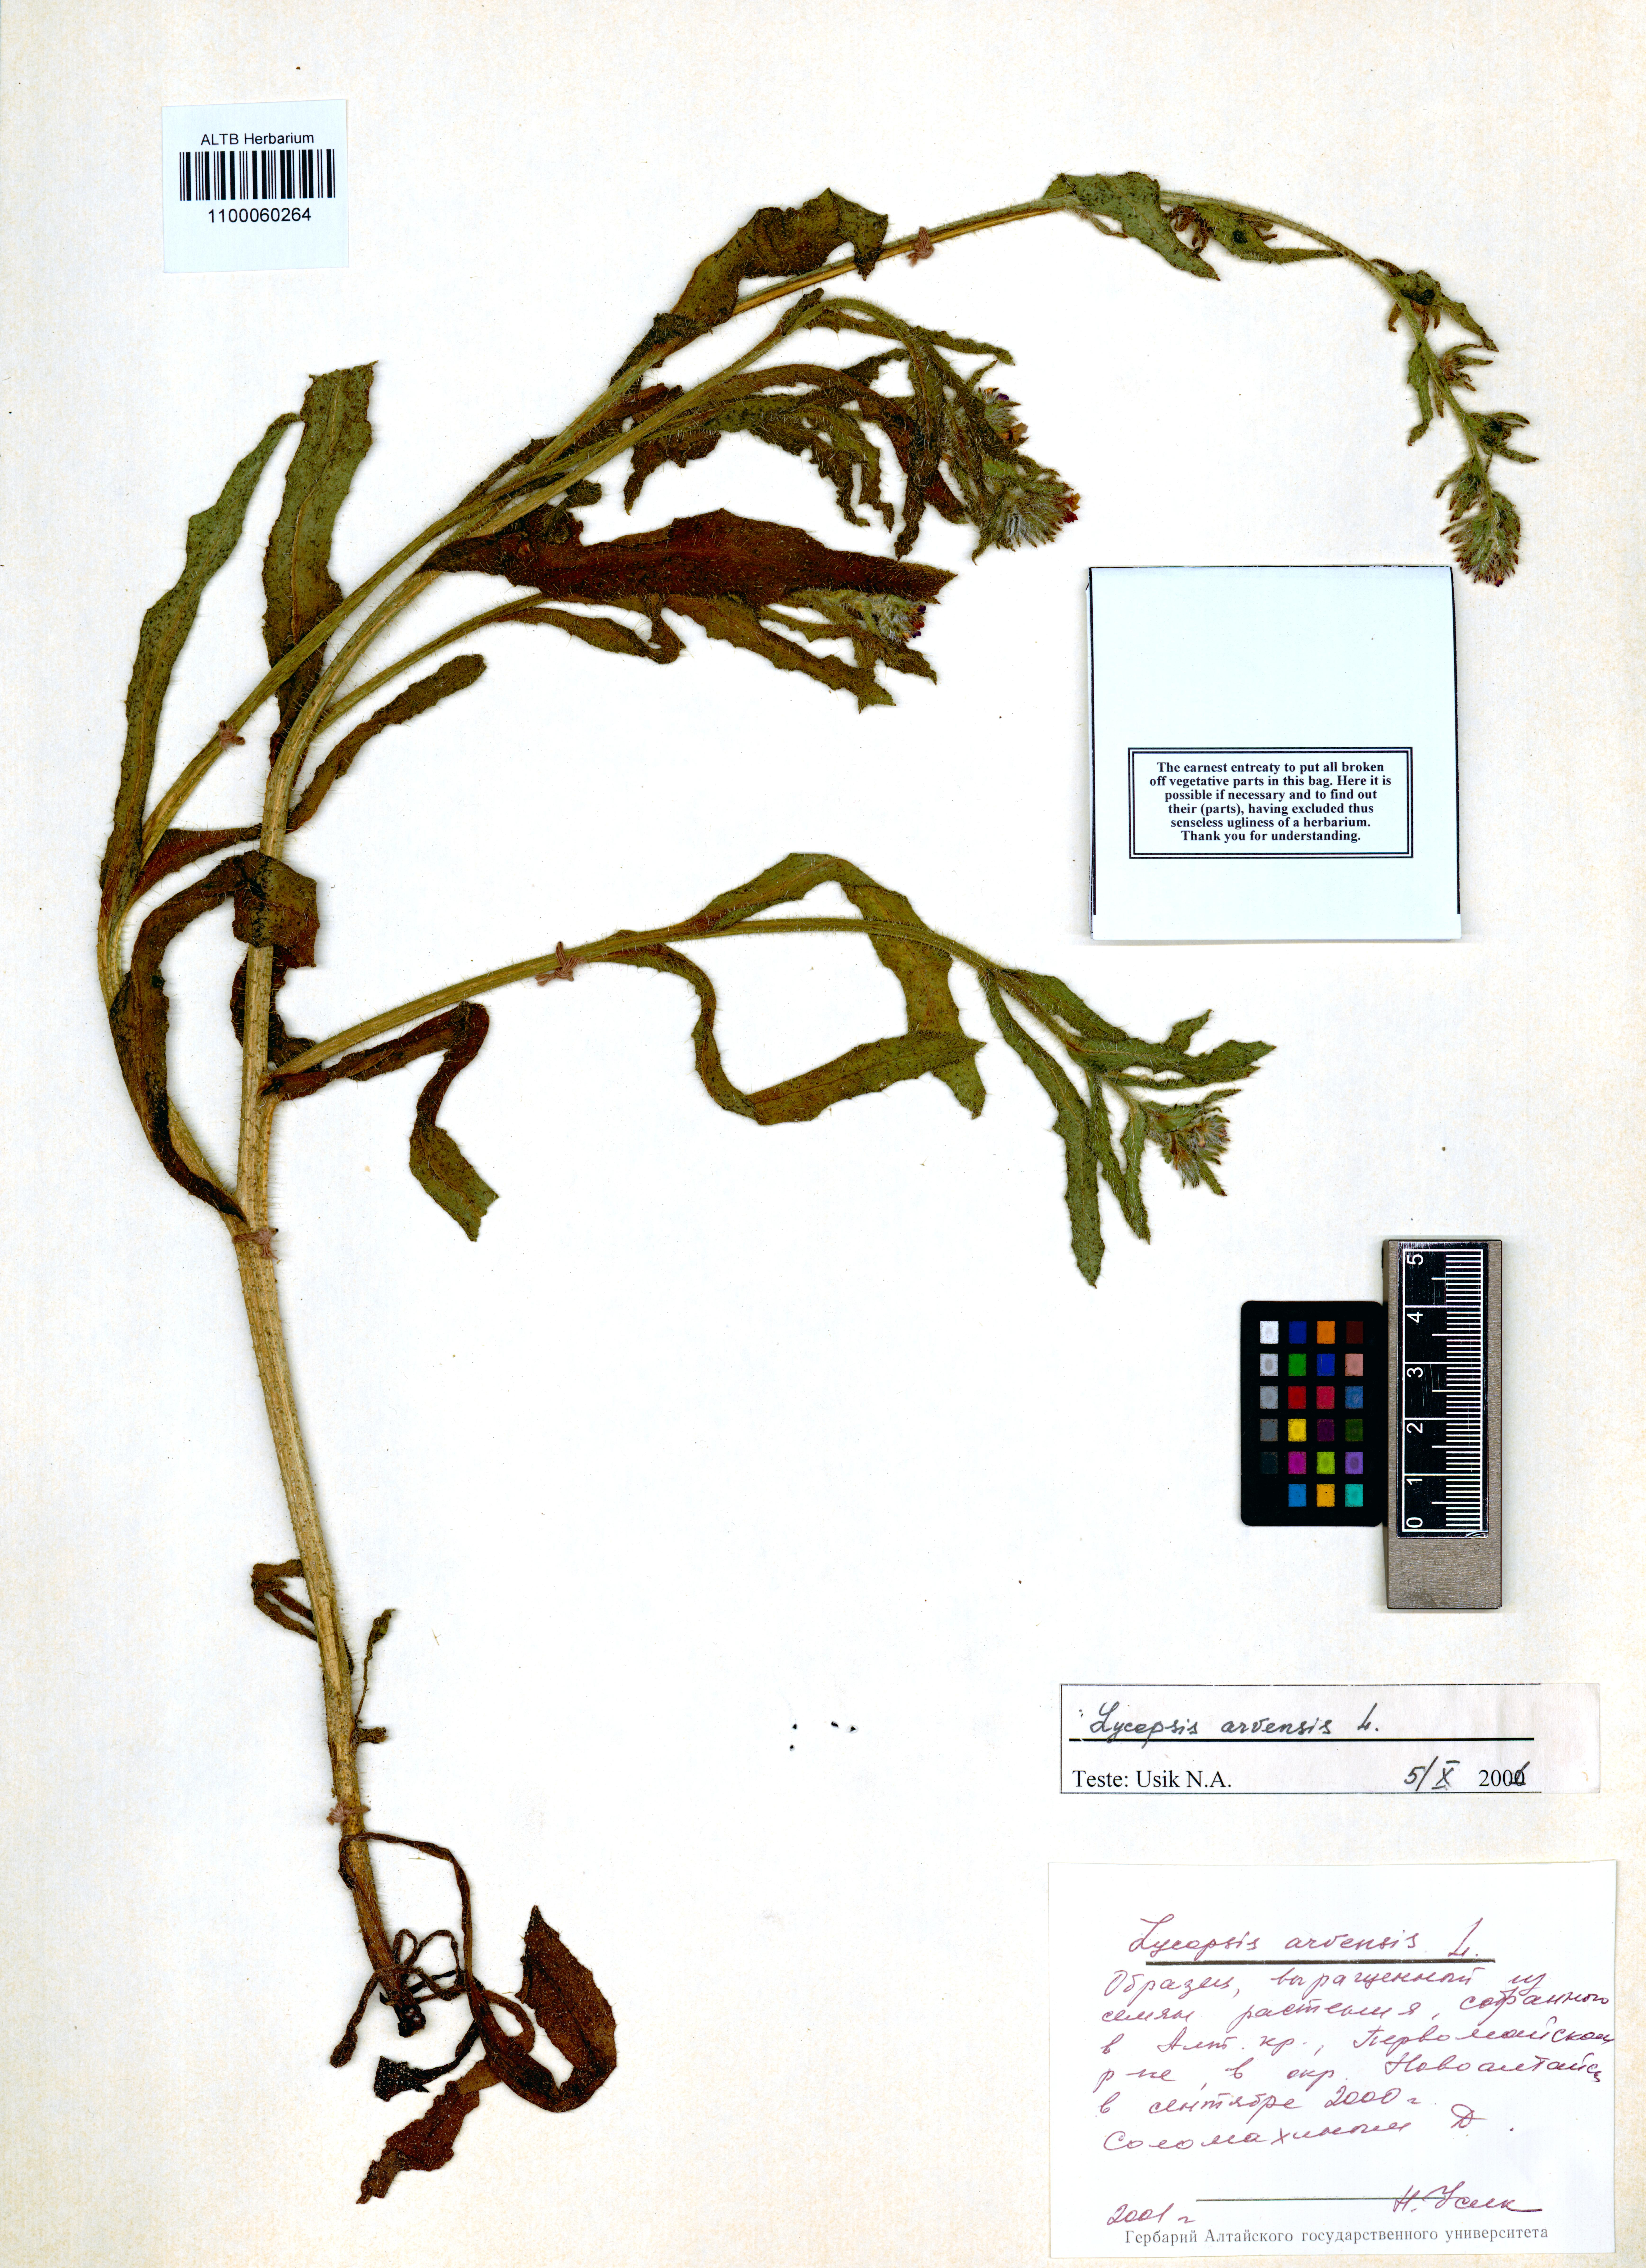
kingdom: Plantae
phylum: Tracheophyta
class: Magnoliopsida
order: Boraginales
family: Boraginaceae
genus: Lycopsis
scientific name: Lycopsis arvensis
